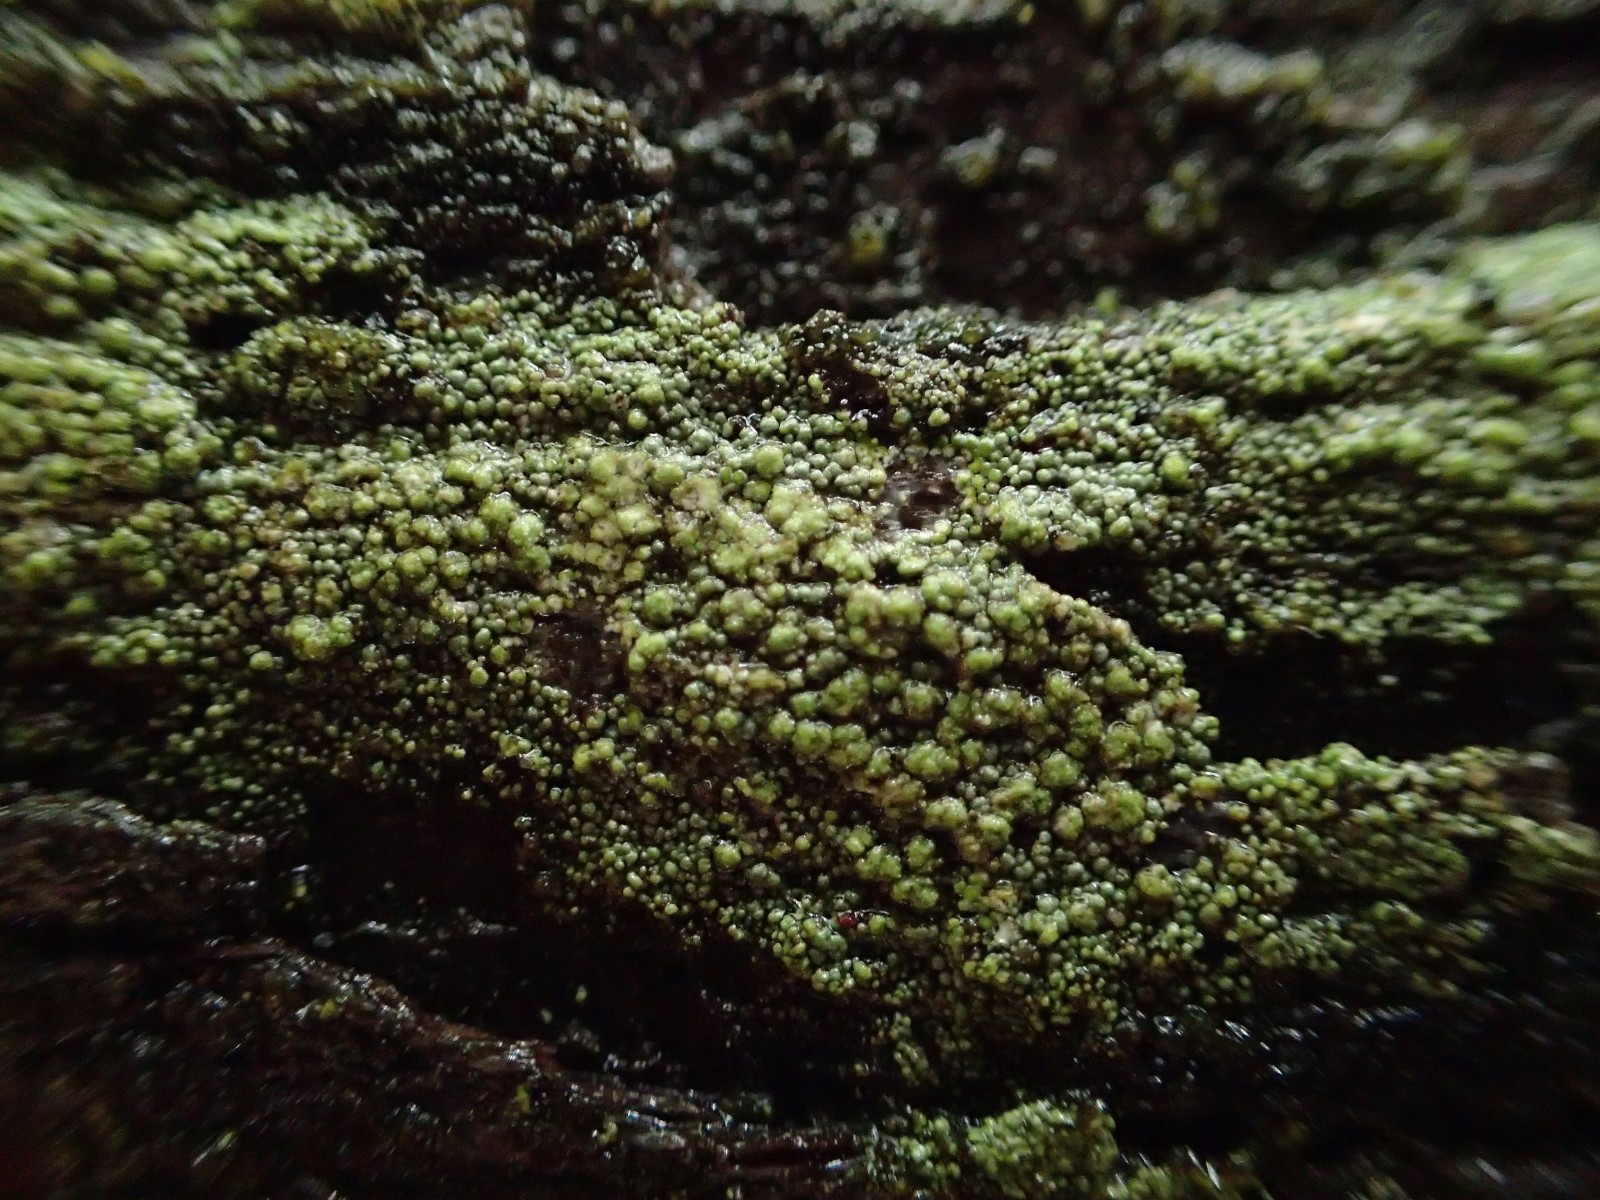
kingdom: Fungi
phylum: Ascomycota
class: Lecanoromycetes
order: Baeomycetales
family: Trapeliaceae
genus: Trapeliopsis
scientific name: Trapeliopsis
